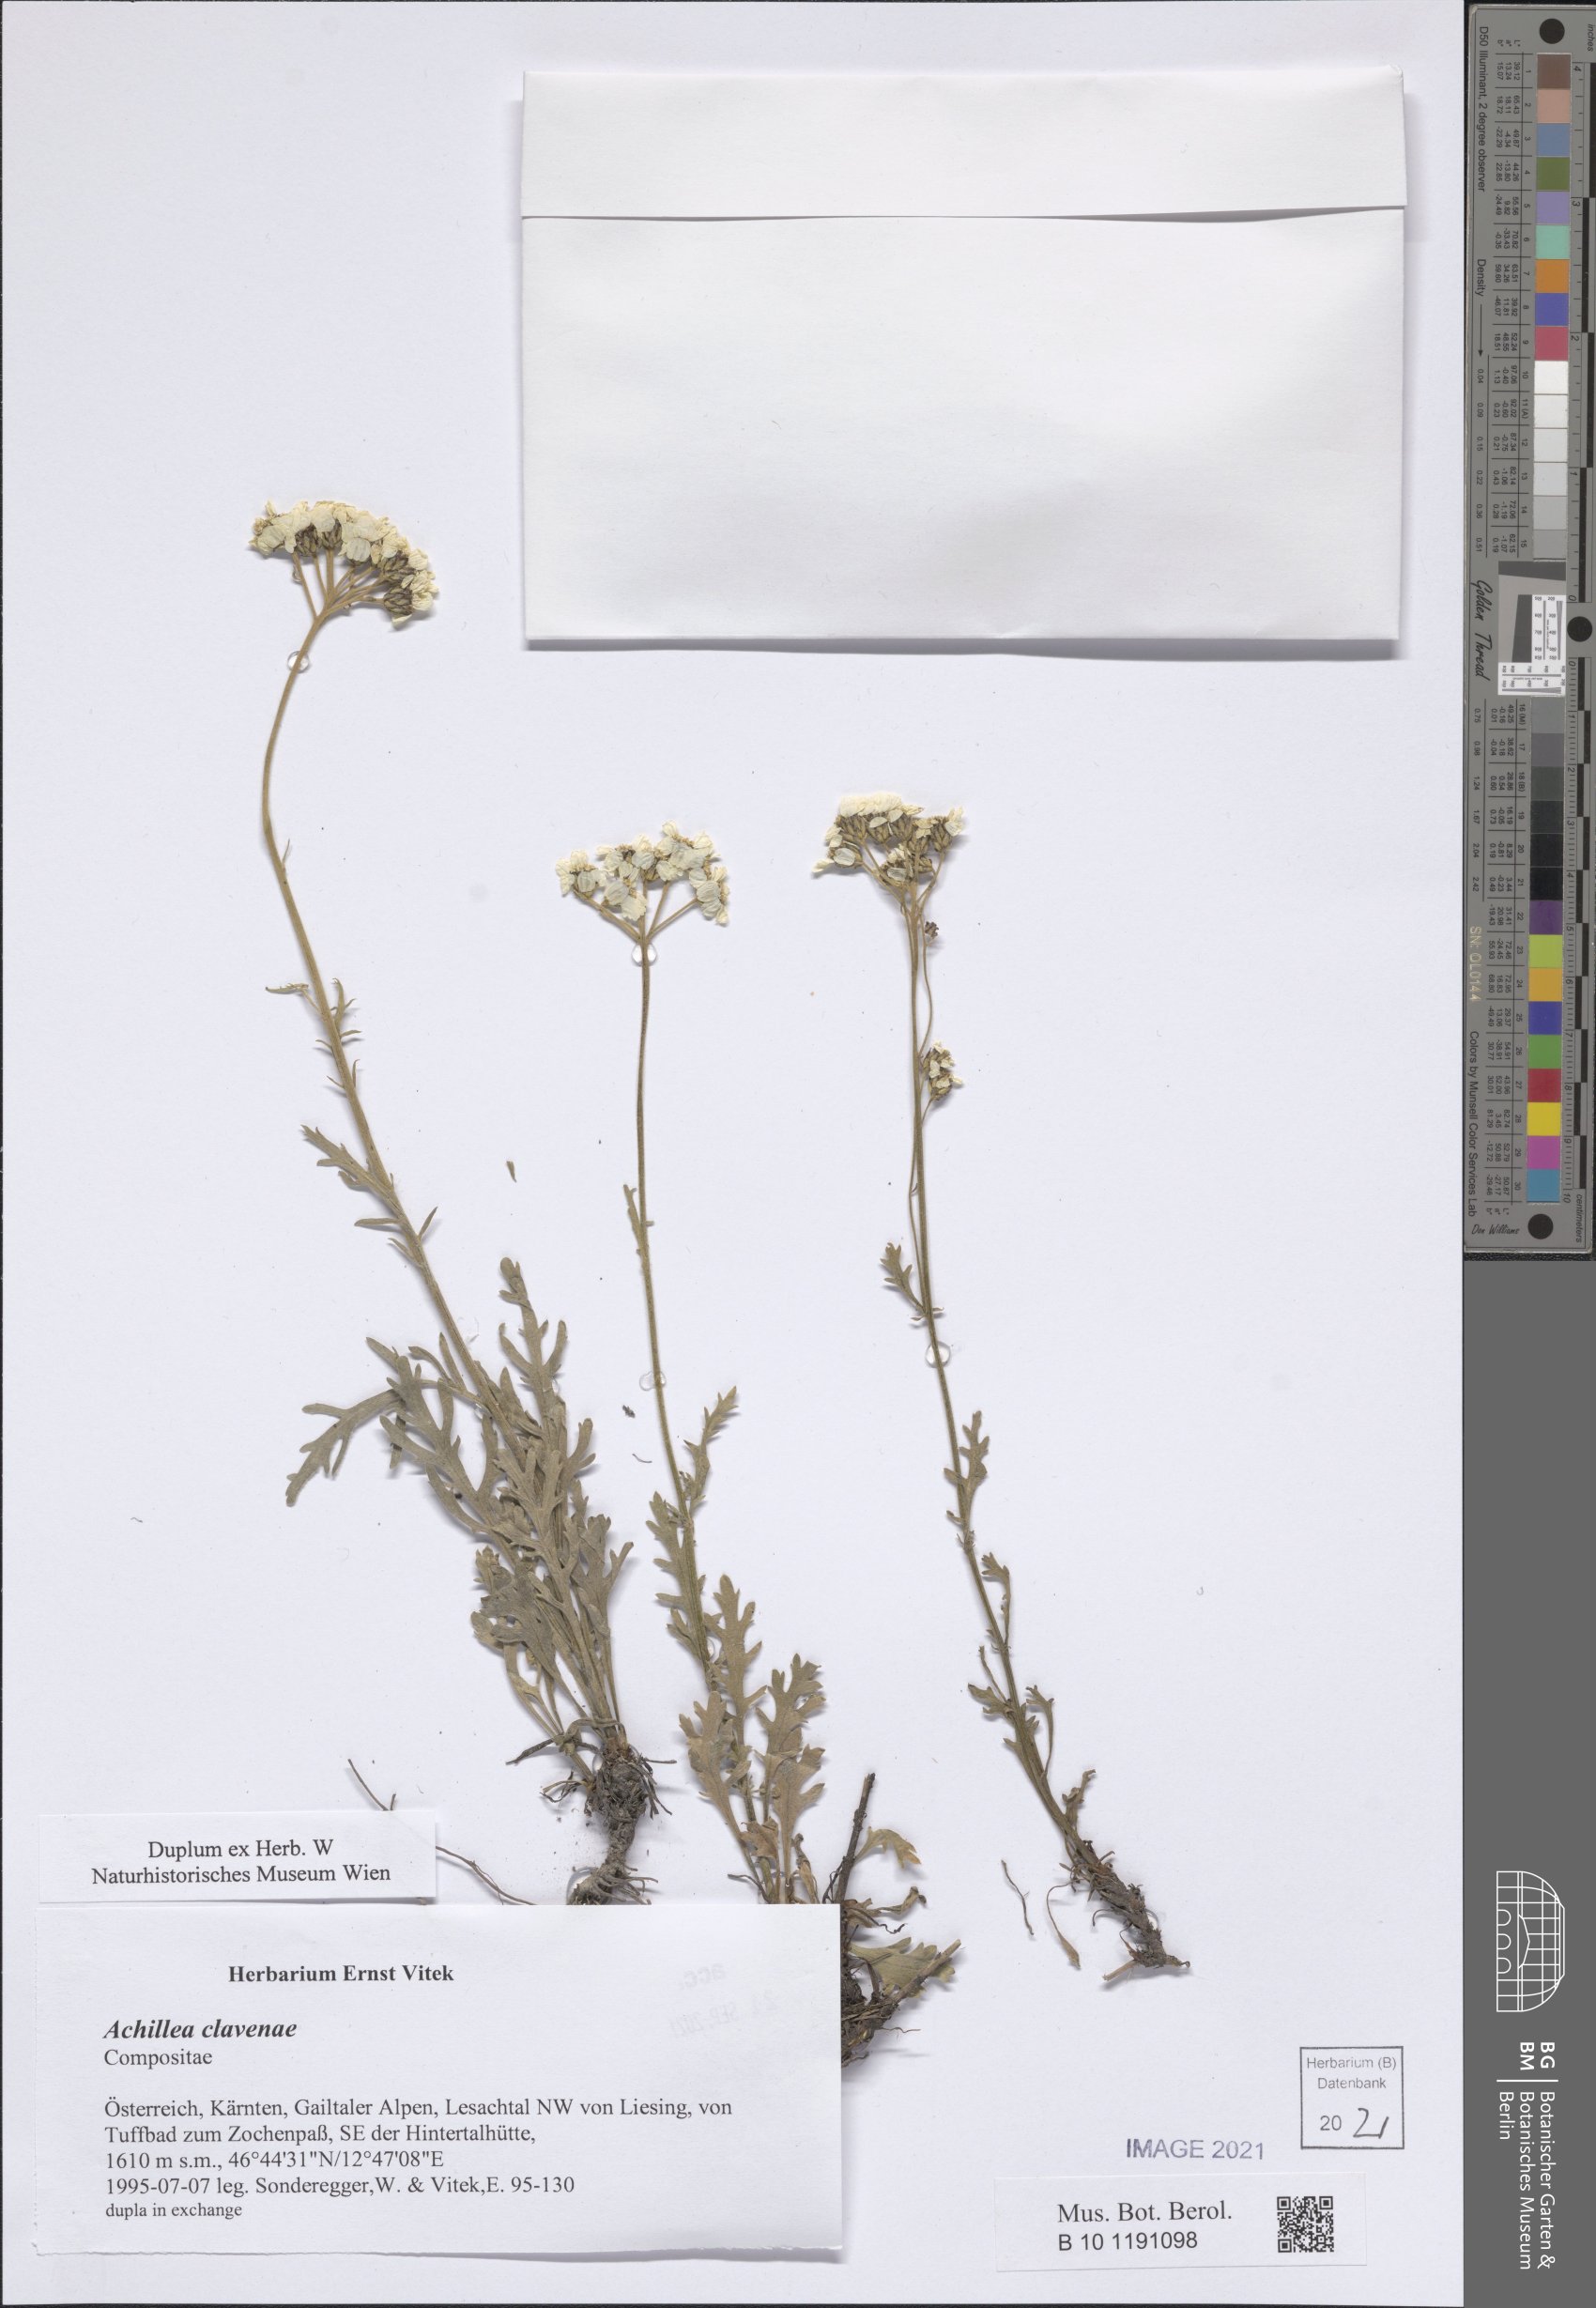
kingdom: Plantae
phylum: Tracheophyta
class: Magnoliopsida
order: Asterales
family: Asteraceae
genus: Achillea
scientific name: Achillea clavennae
